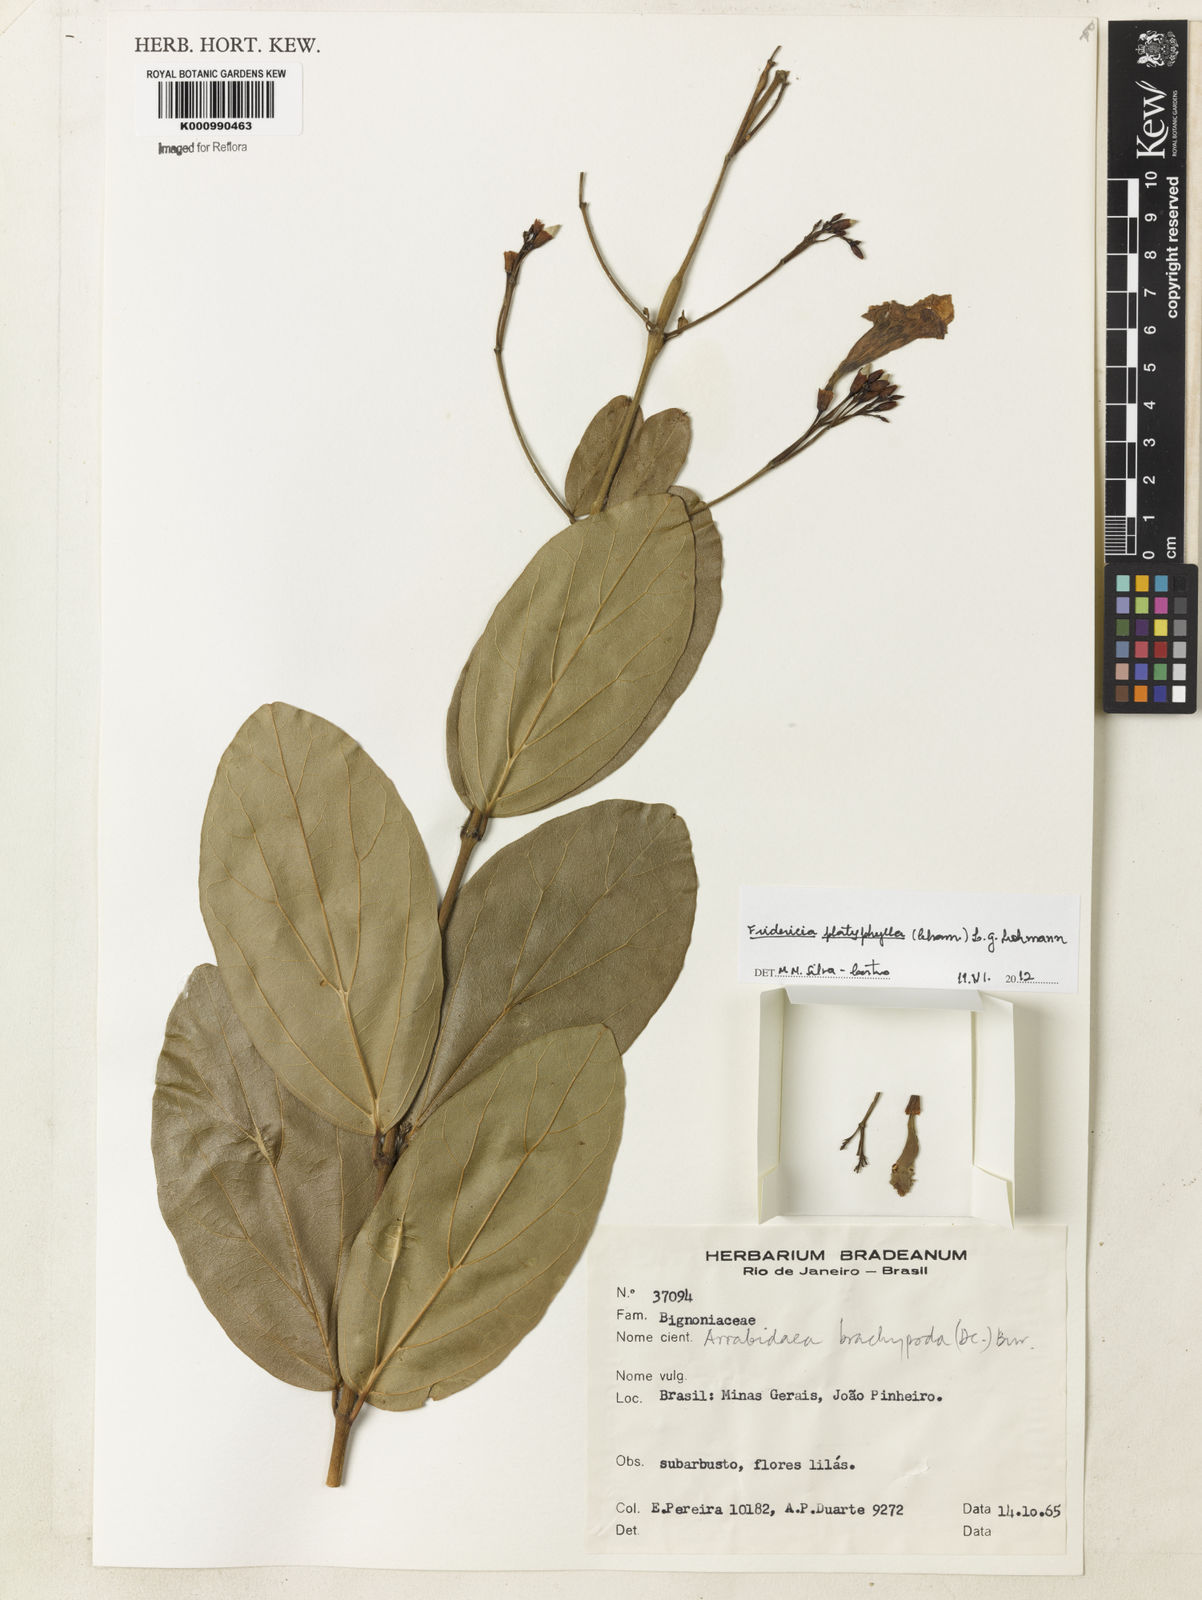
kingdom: Plantae
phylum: Tracheophyta
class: Magnoliopsida
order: Lamiales
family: Bignoniaceae
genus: Fridericia
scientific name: Fridericia platyphylla
